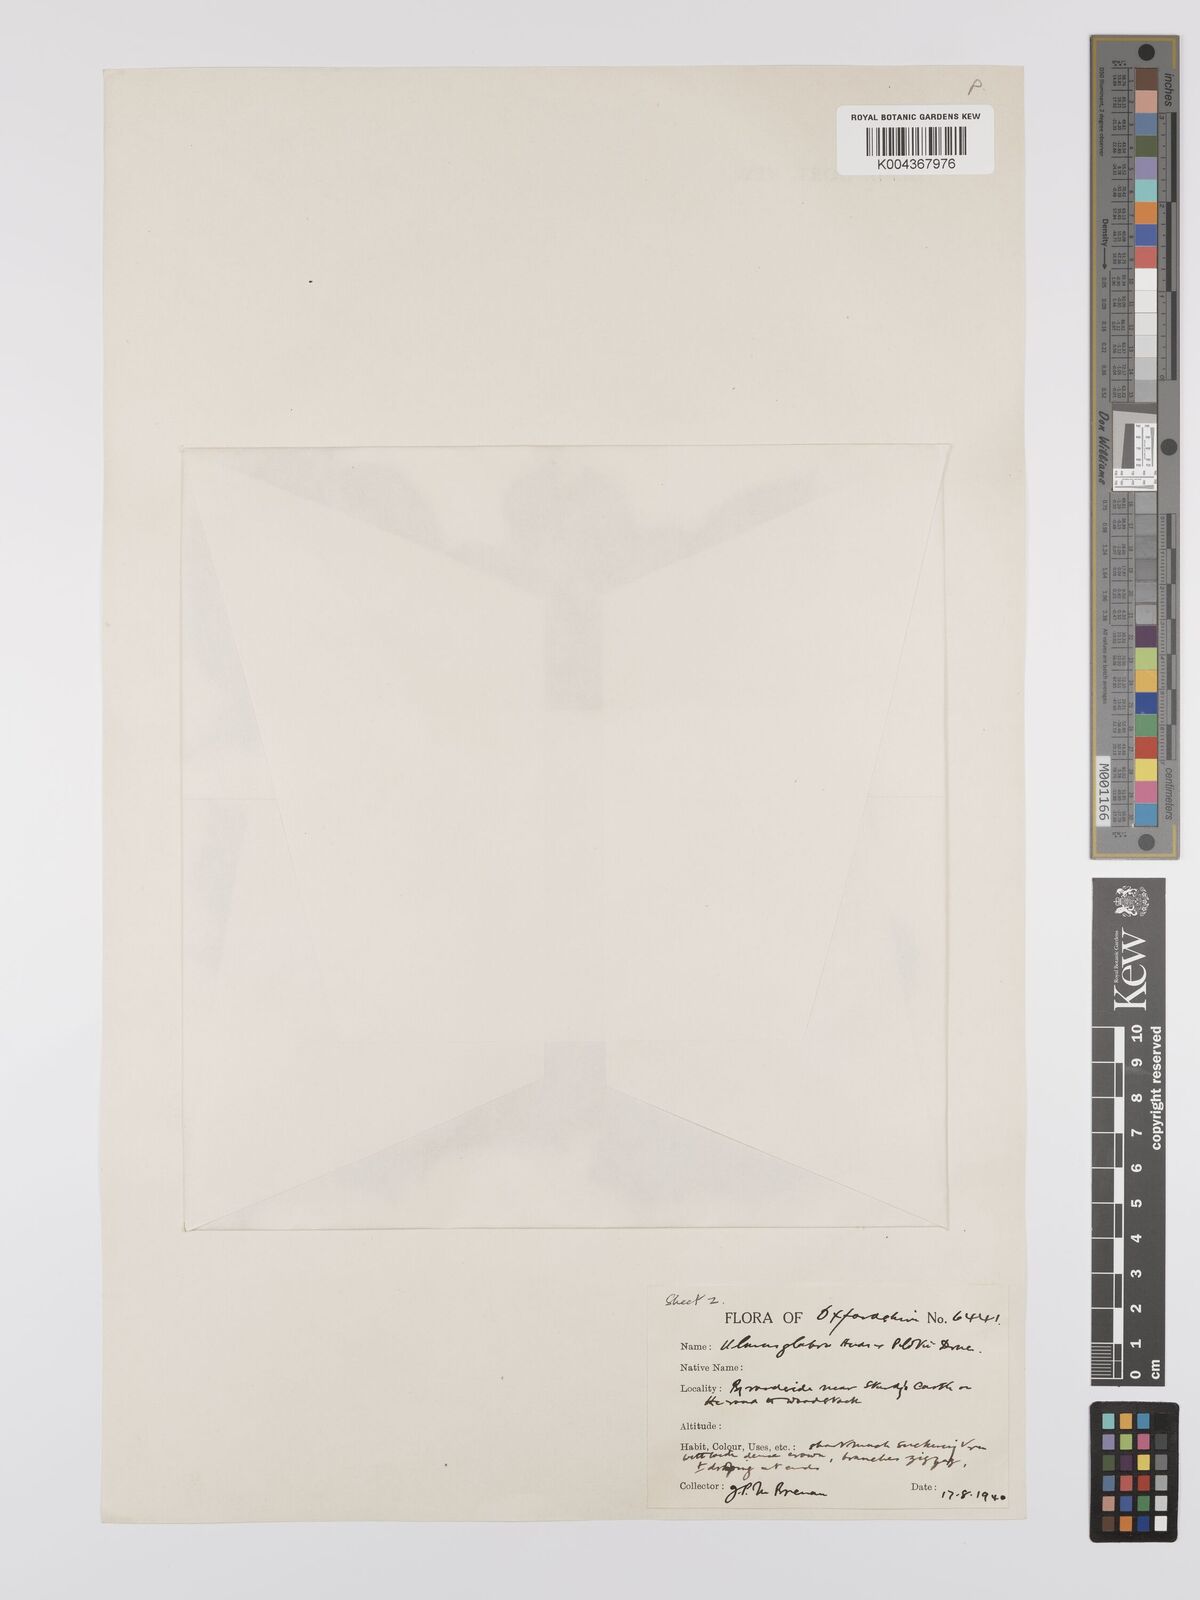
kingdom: Plantae
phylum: Tracheophyta
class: Magnoliopsida
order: Rosales
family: Ulmaceae
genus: Ulmus
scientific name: Ulmus minor
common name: Small-leaved elm
